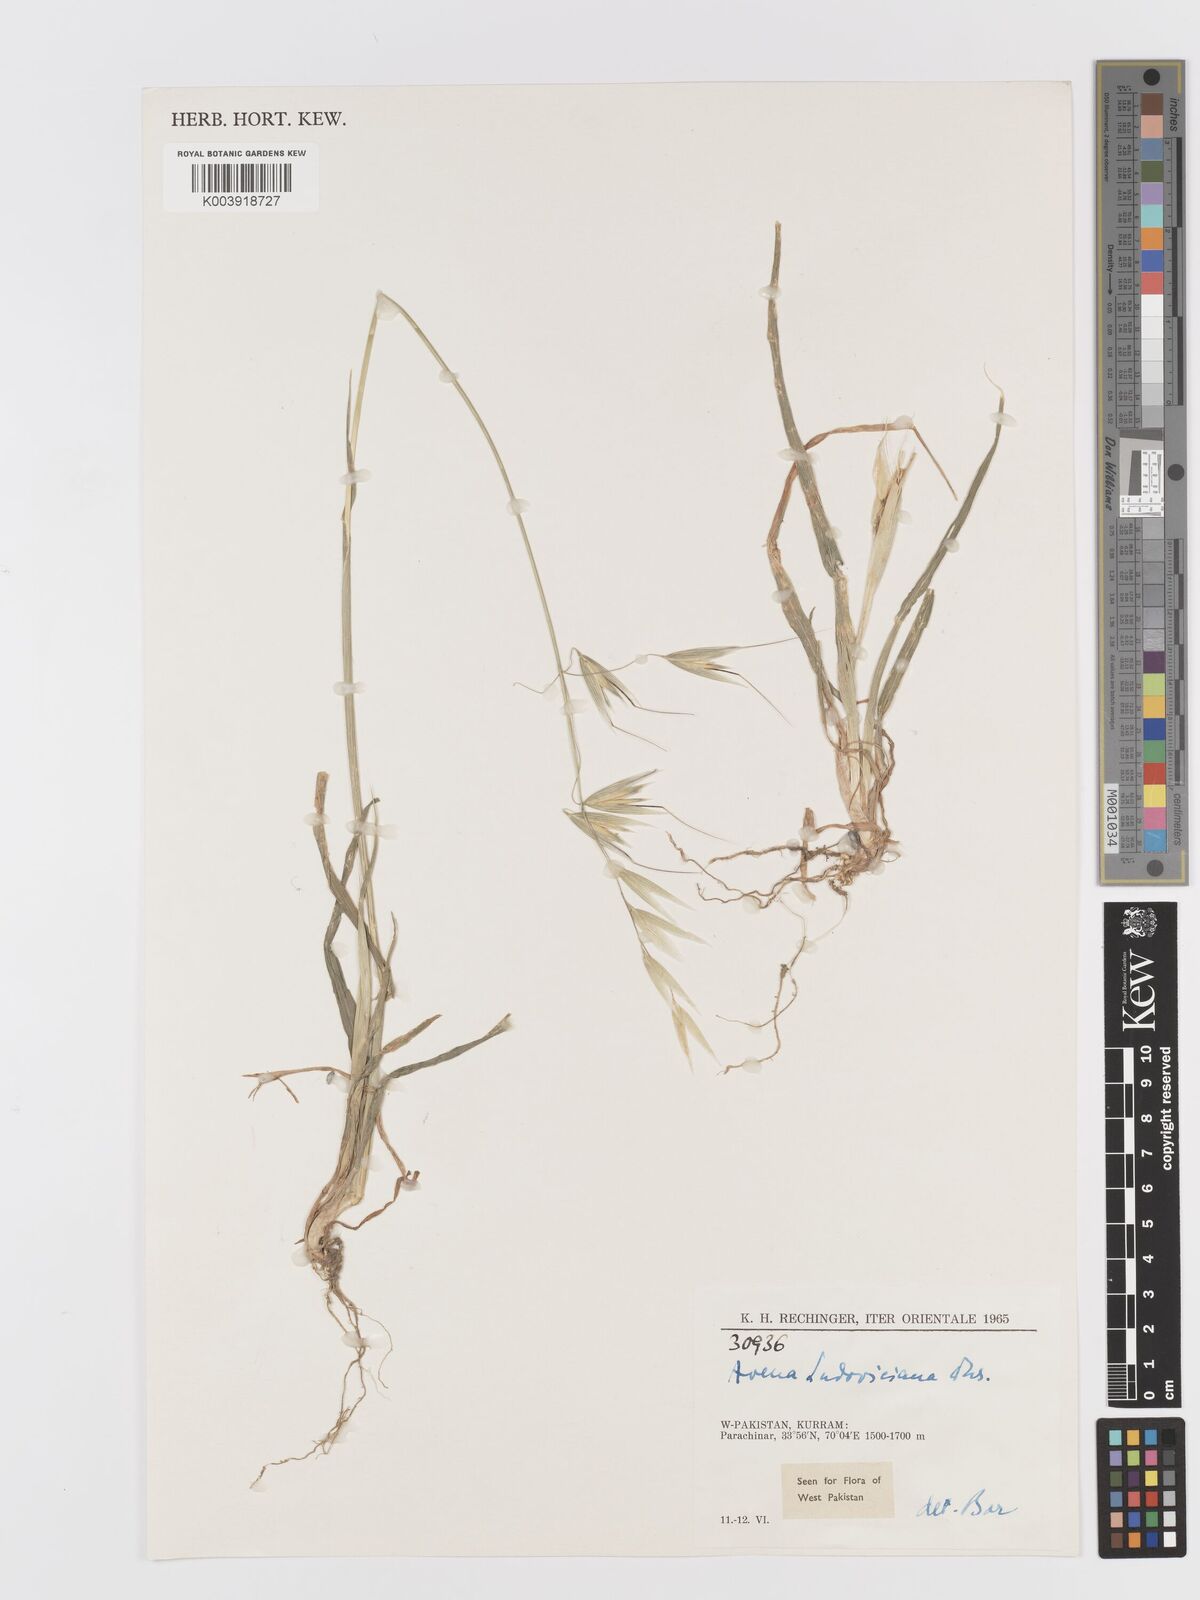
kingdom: Plantae
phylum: Tracheophyta
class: Liliopsida
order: Poales
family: Poaceae
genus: Avena
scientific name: Avena sterilis
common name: Animated oat
